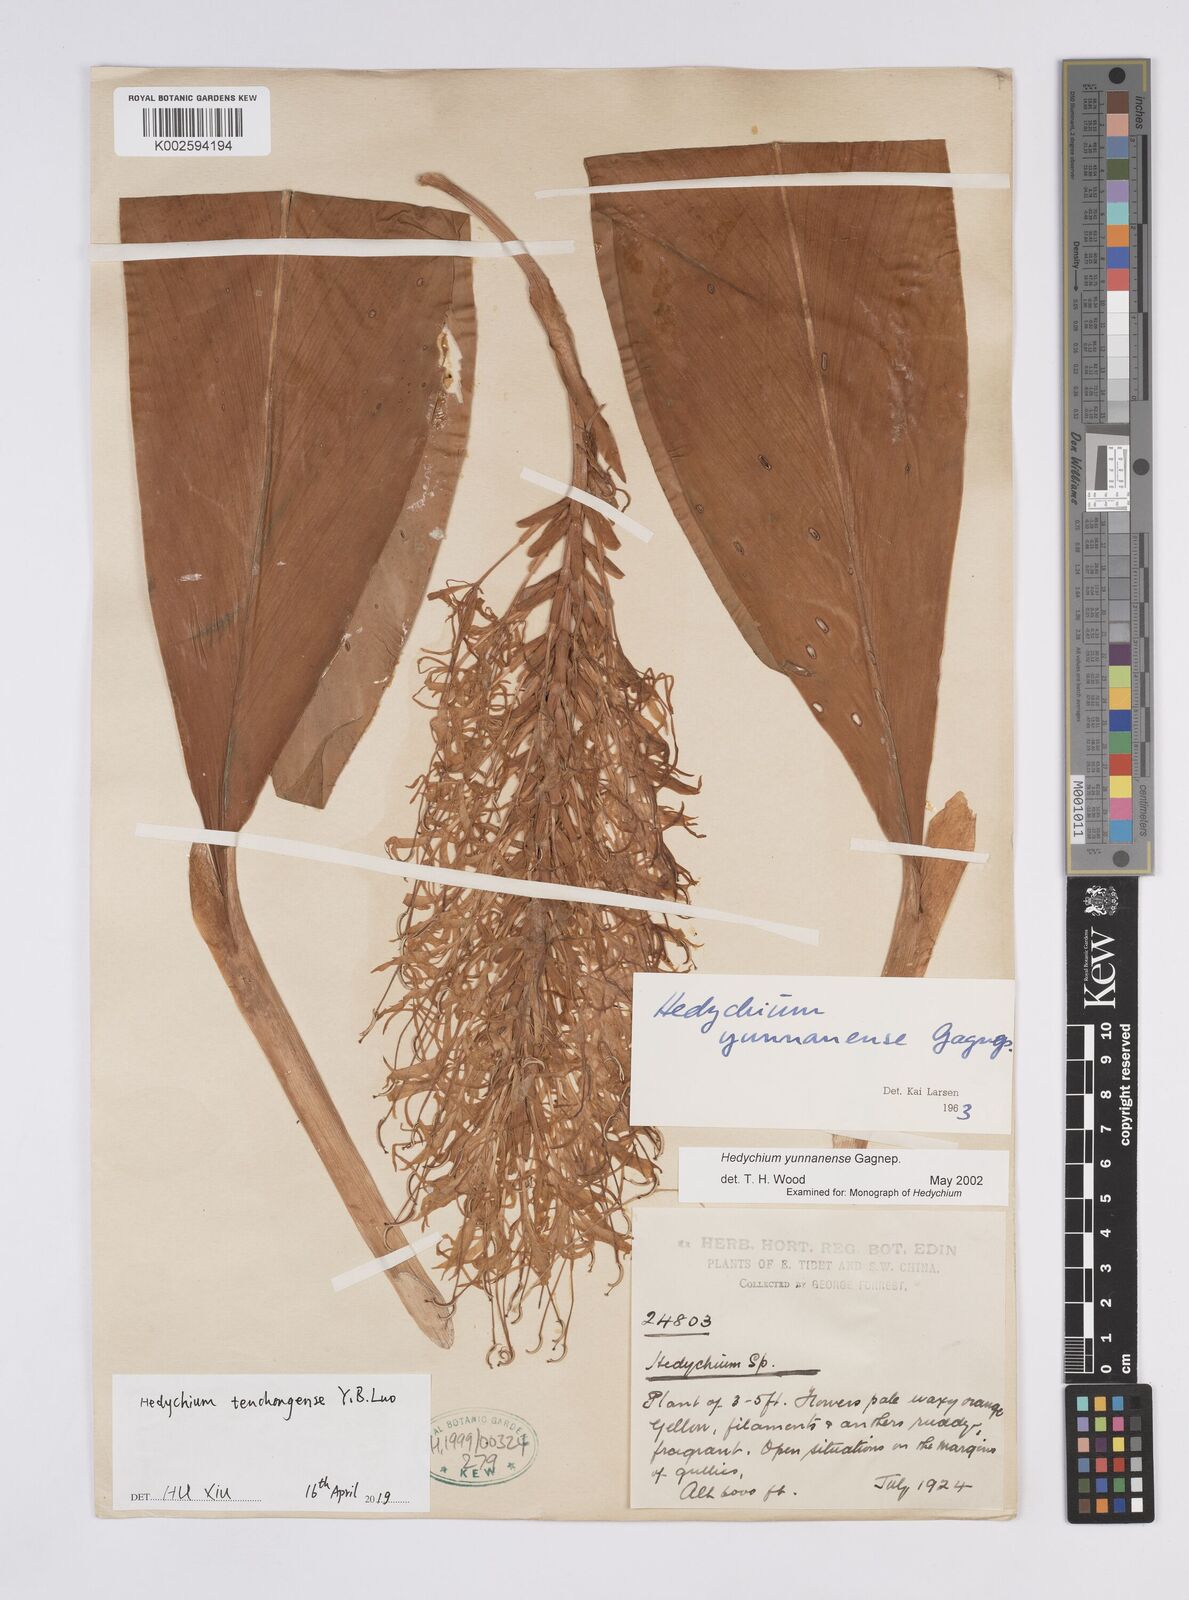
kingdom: Plantae
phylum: Tracheophyta
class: Liliopsida
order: Zingiberales
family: Zingiberaceae
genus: Hedychium
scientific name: Hedychium tengchongense
